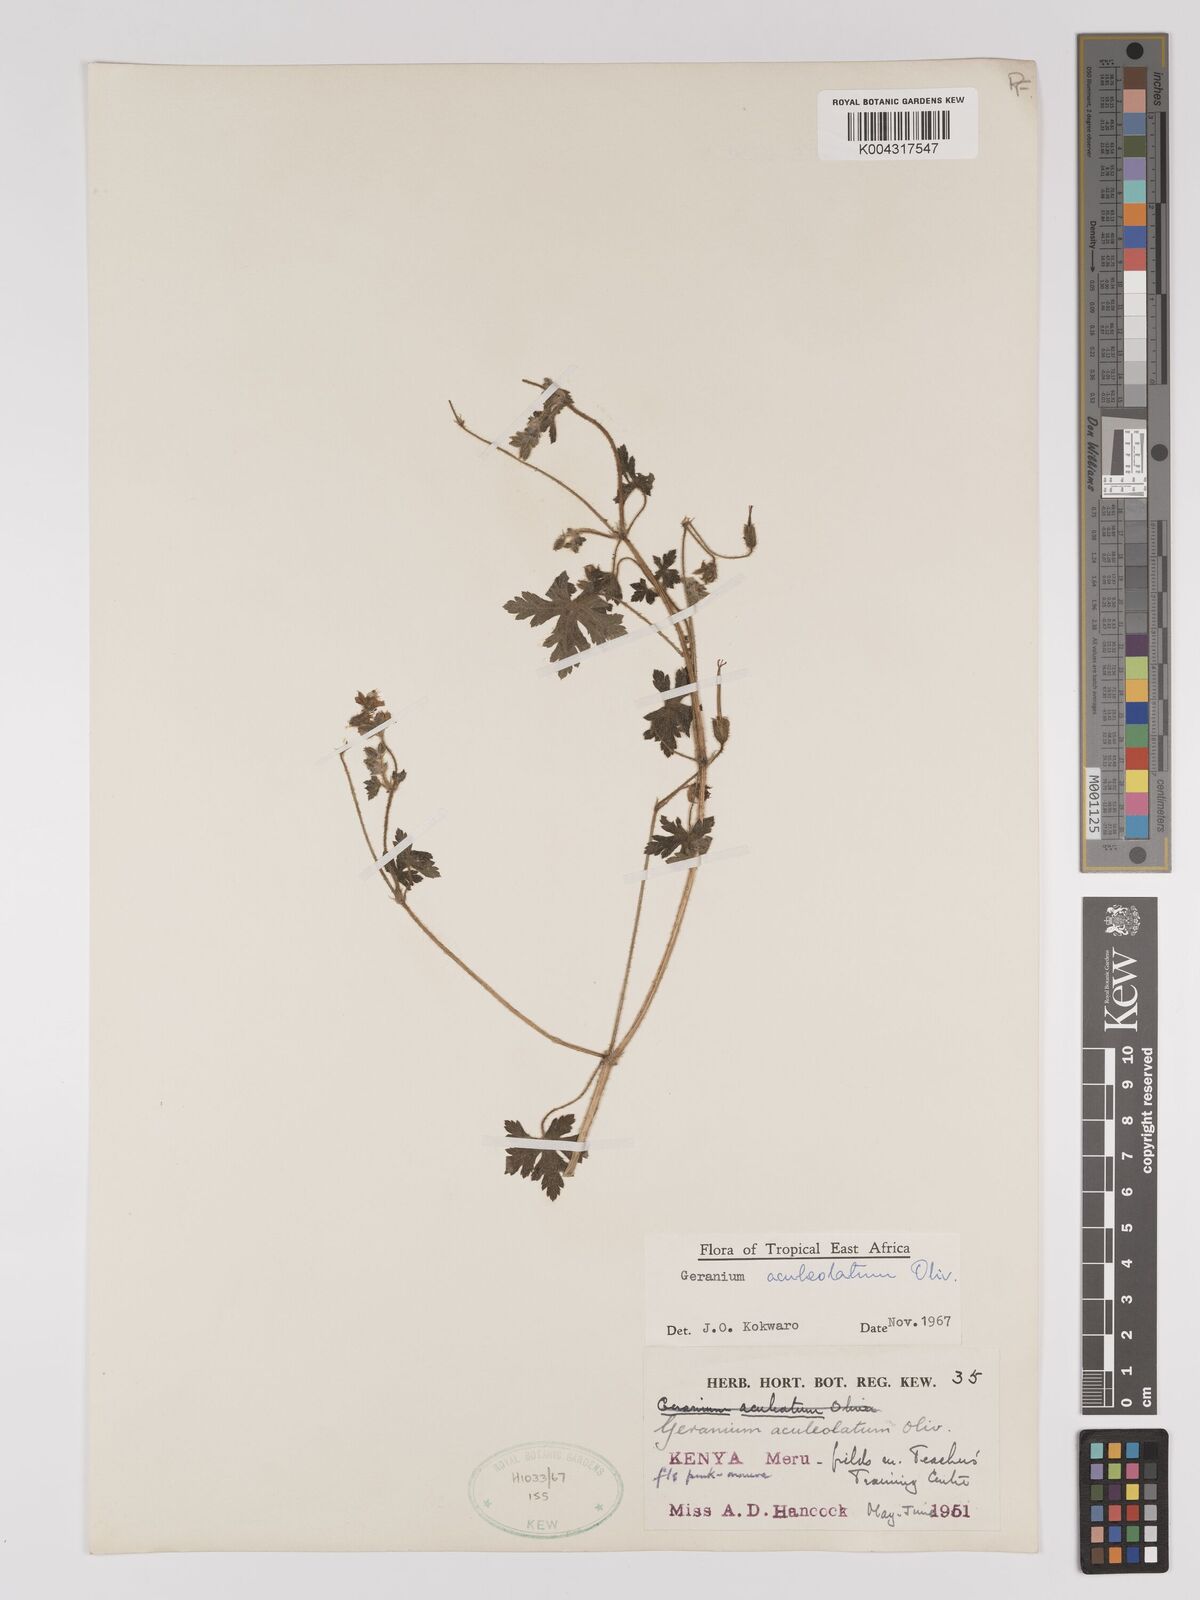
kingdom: Plantae
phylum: Tracheophyta
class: Magnoliopsida
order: Geraniales
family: Geraniaceae
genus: Geranium
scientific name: Geranium aculeolatum
